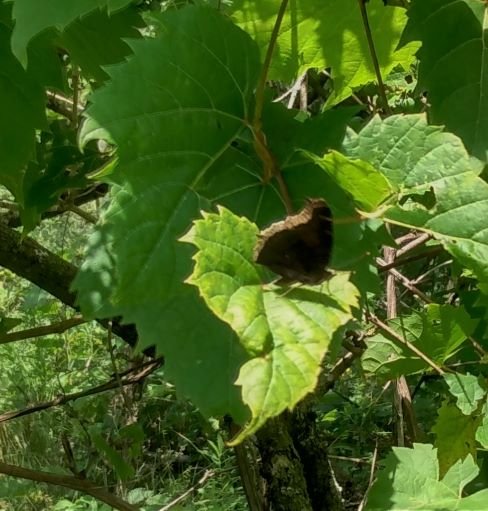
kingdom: Animalia
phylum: Arthropoda
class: Insecta
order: Lepidoptera
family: Nymphalidae
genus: Nymphalis
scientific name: Nymphalis antiopa
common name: Mourning Cloak
